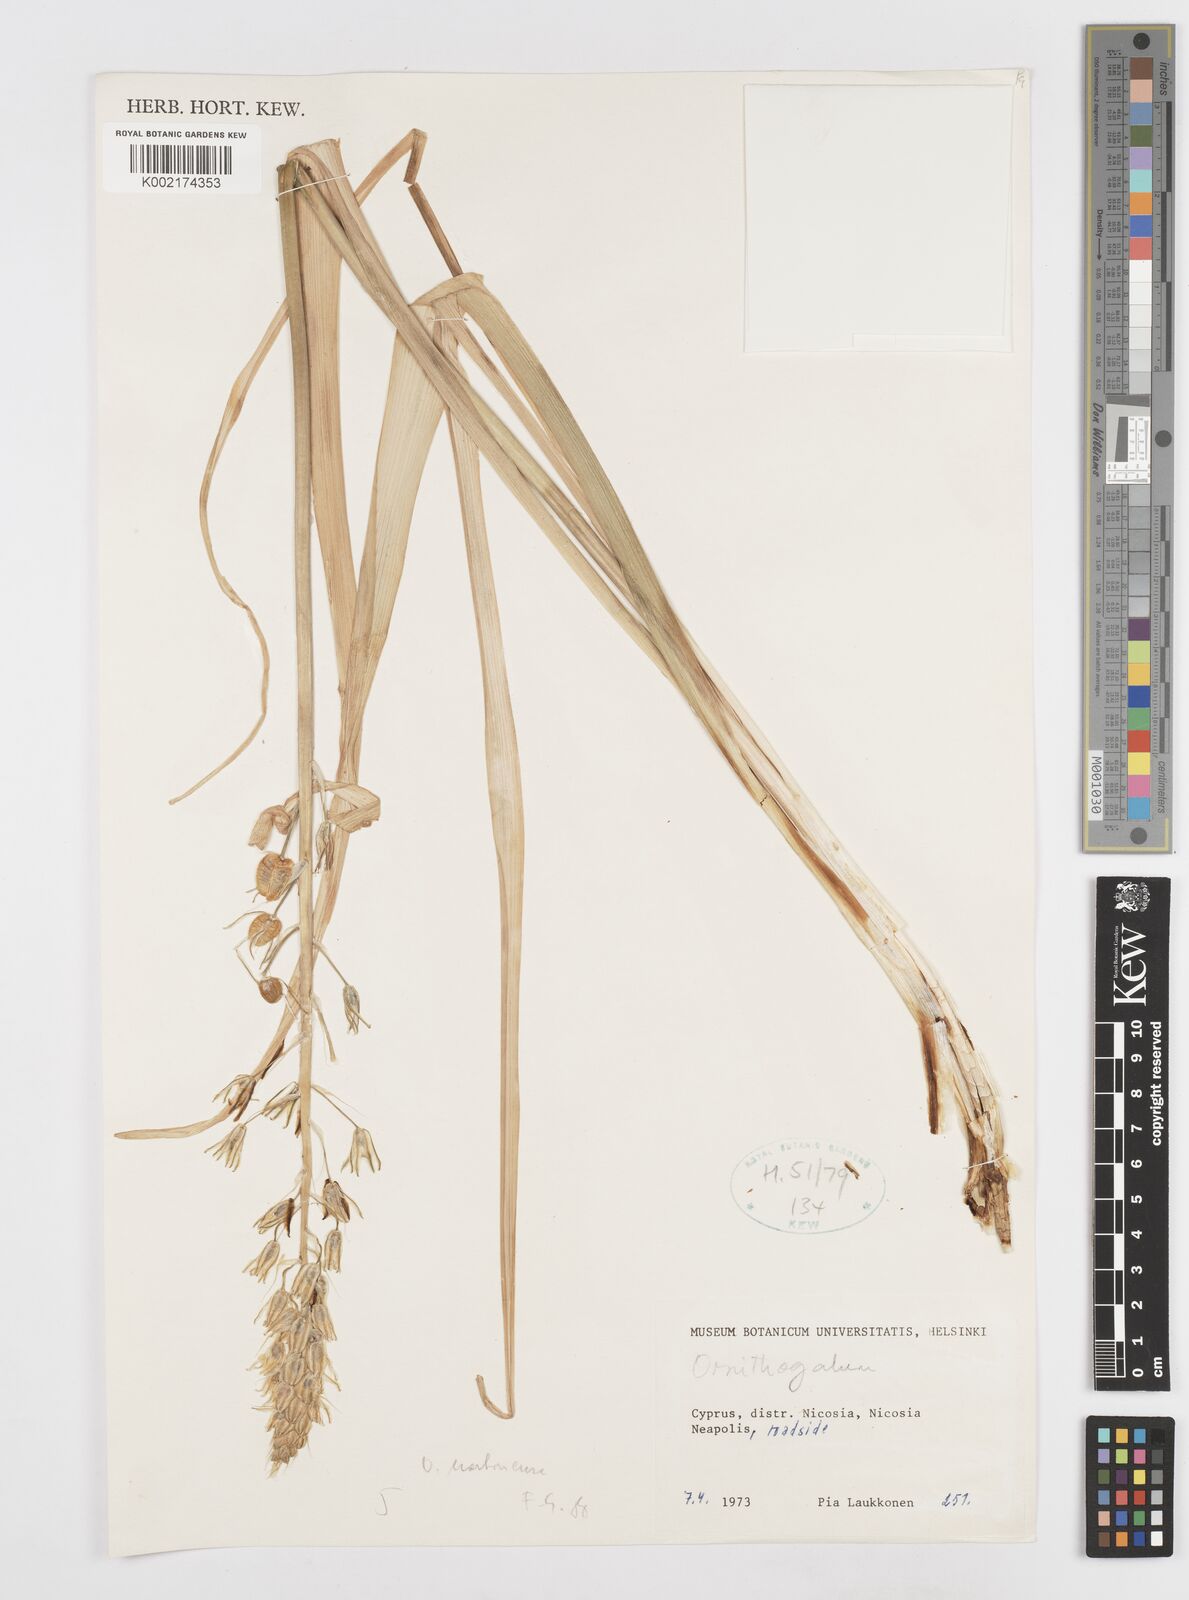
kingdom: Plantae
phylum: Tracheophyta
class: Liliopsida
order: Asparagales
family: Asparagaceae
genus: Ornithogalum
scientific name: Ornithogalum narbonense
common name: Bath-asparagus
